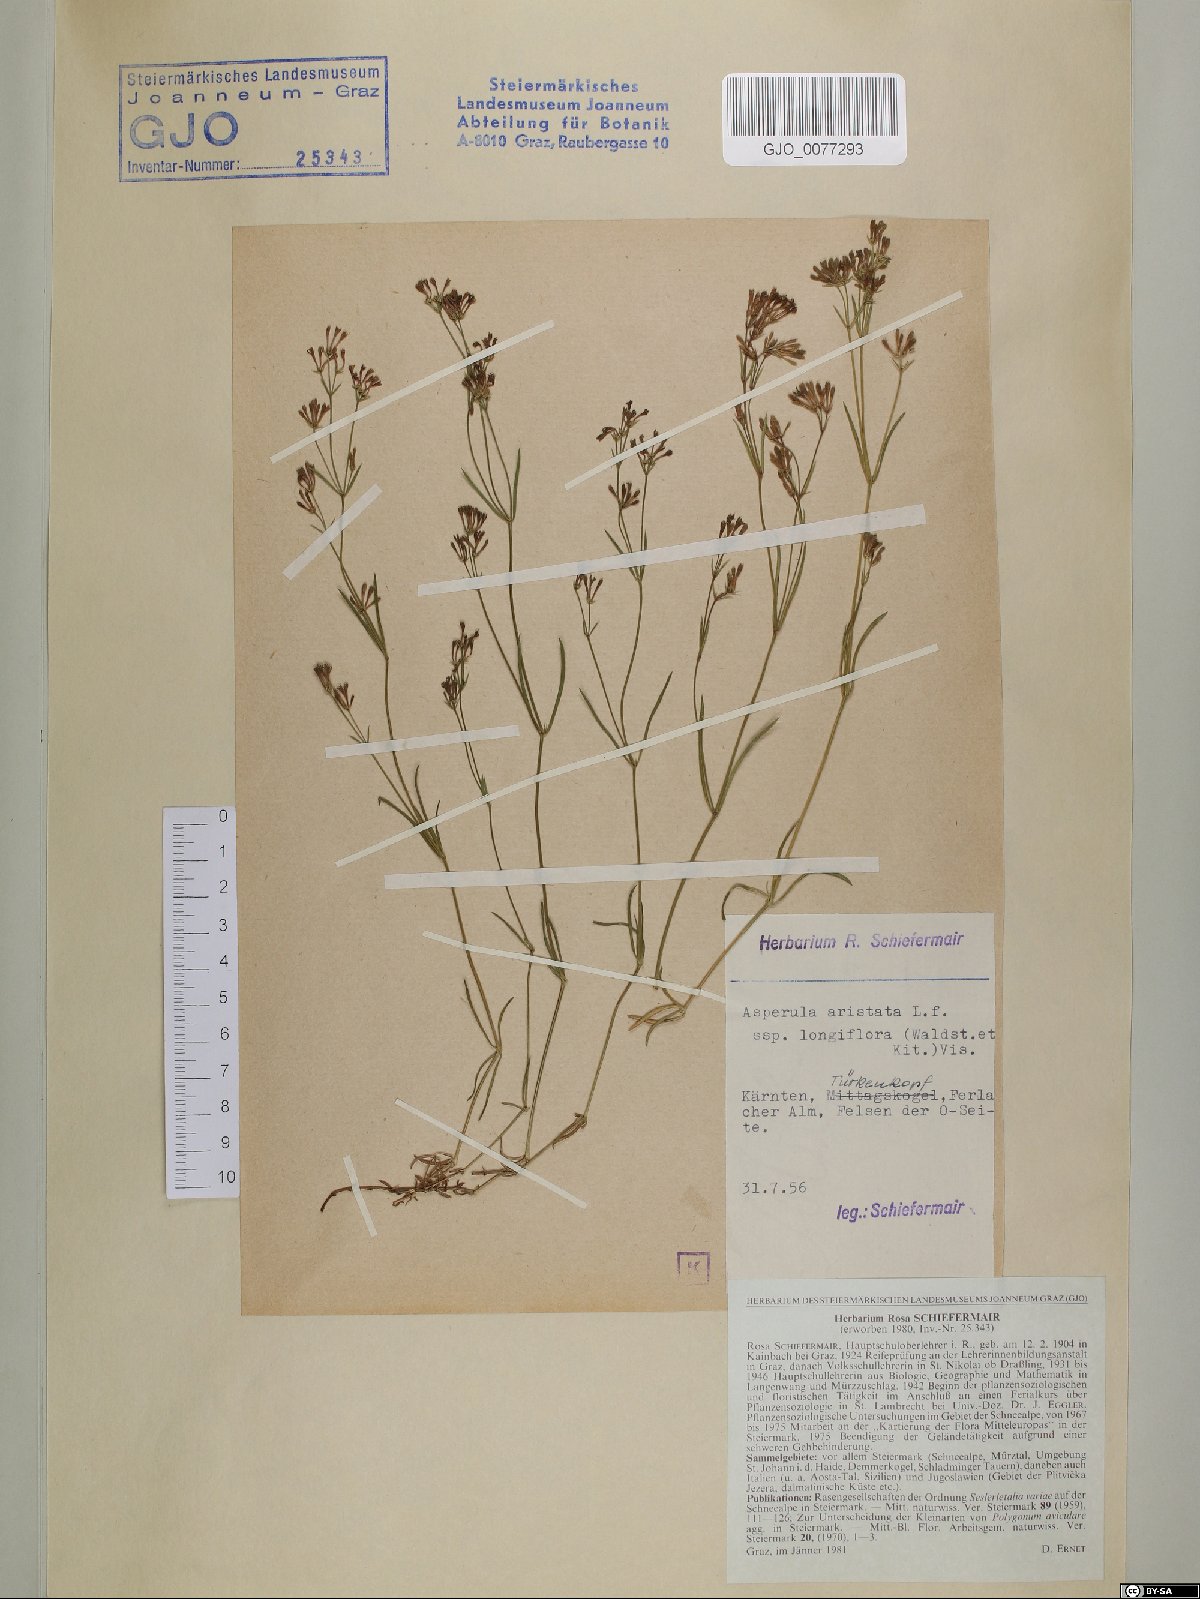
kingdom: Plantae
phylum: Tracheophyta
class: Magnoliopsida
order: Gentianales
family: Rubiaceae
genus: Cynanchica
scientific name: Cynanchica aristata
